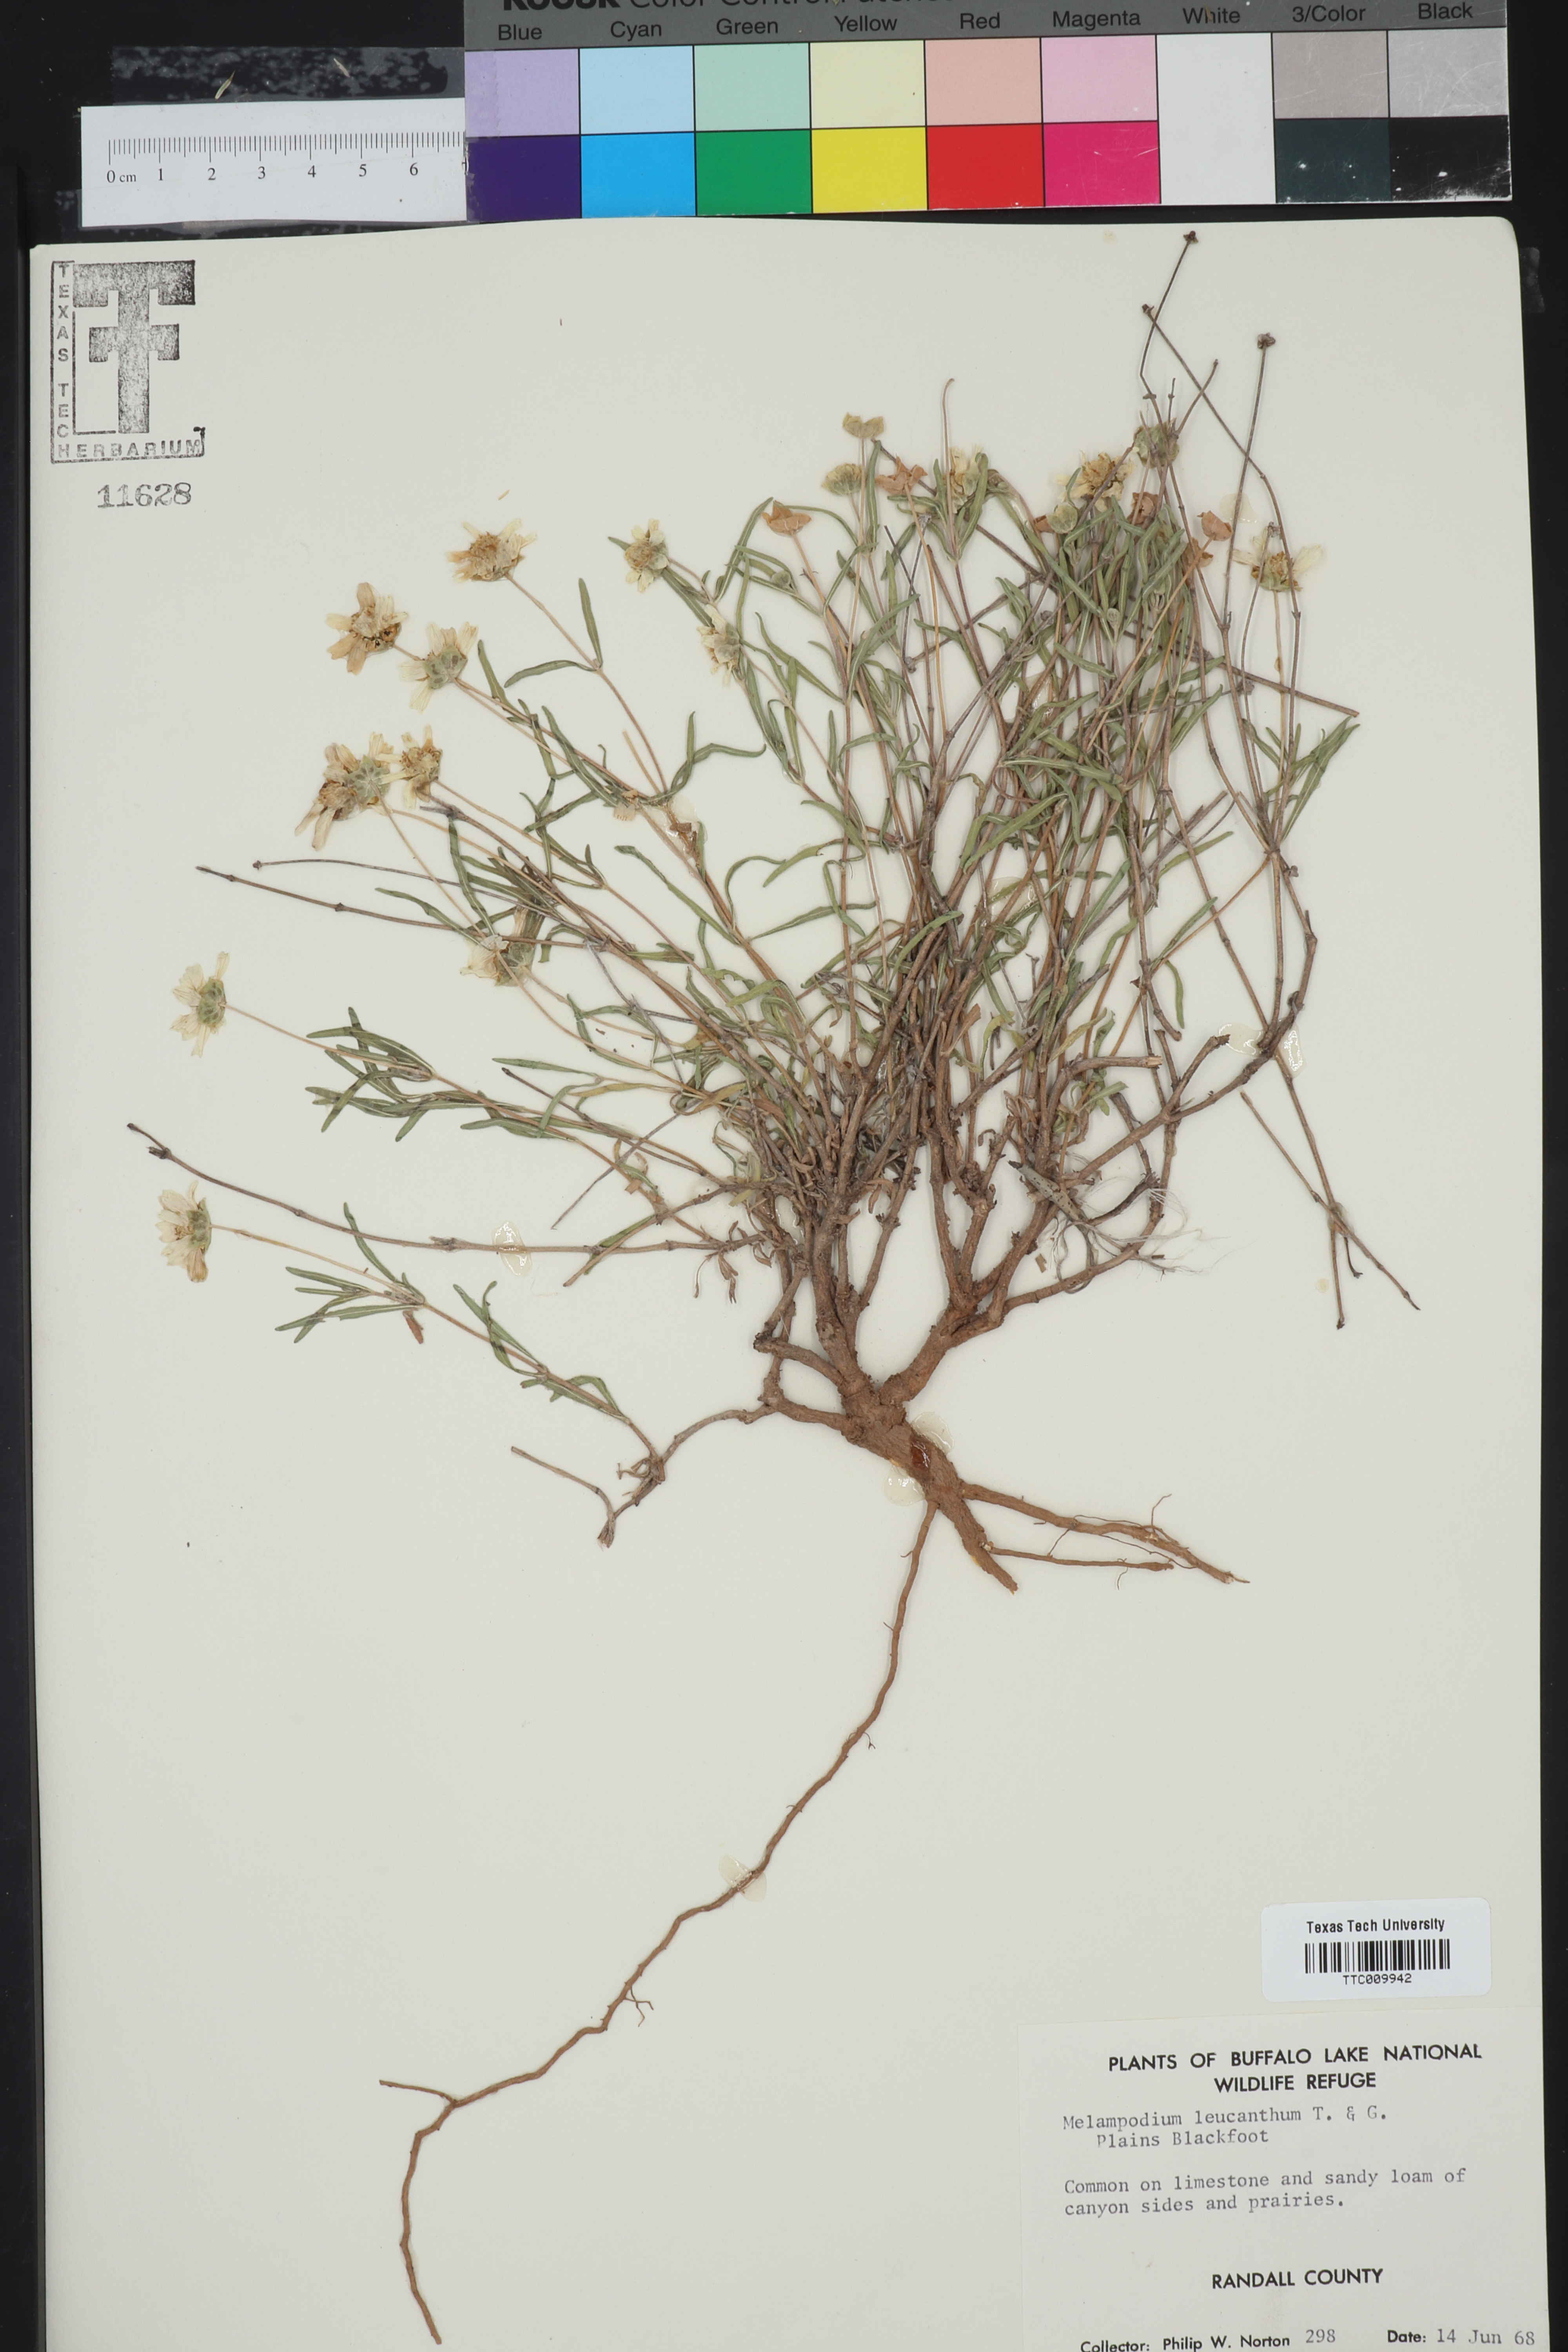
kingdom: Plantae
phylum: Tracheophyta
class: Magnoliopsida
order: Asterales
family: Asteraceae
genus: Melampodium
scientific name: Melampodium leucanthum
